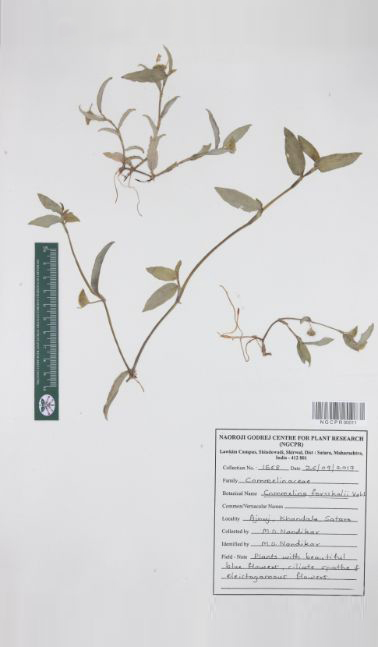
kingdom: Plantae
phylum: Tracheophyta
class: Liliopsida
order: Commelinales
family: Commelinaceae
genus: Commelina
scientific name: Commelina forskaolii
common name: Rat's ear
